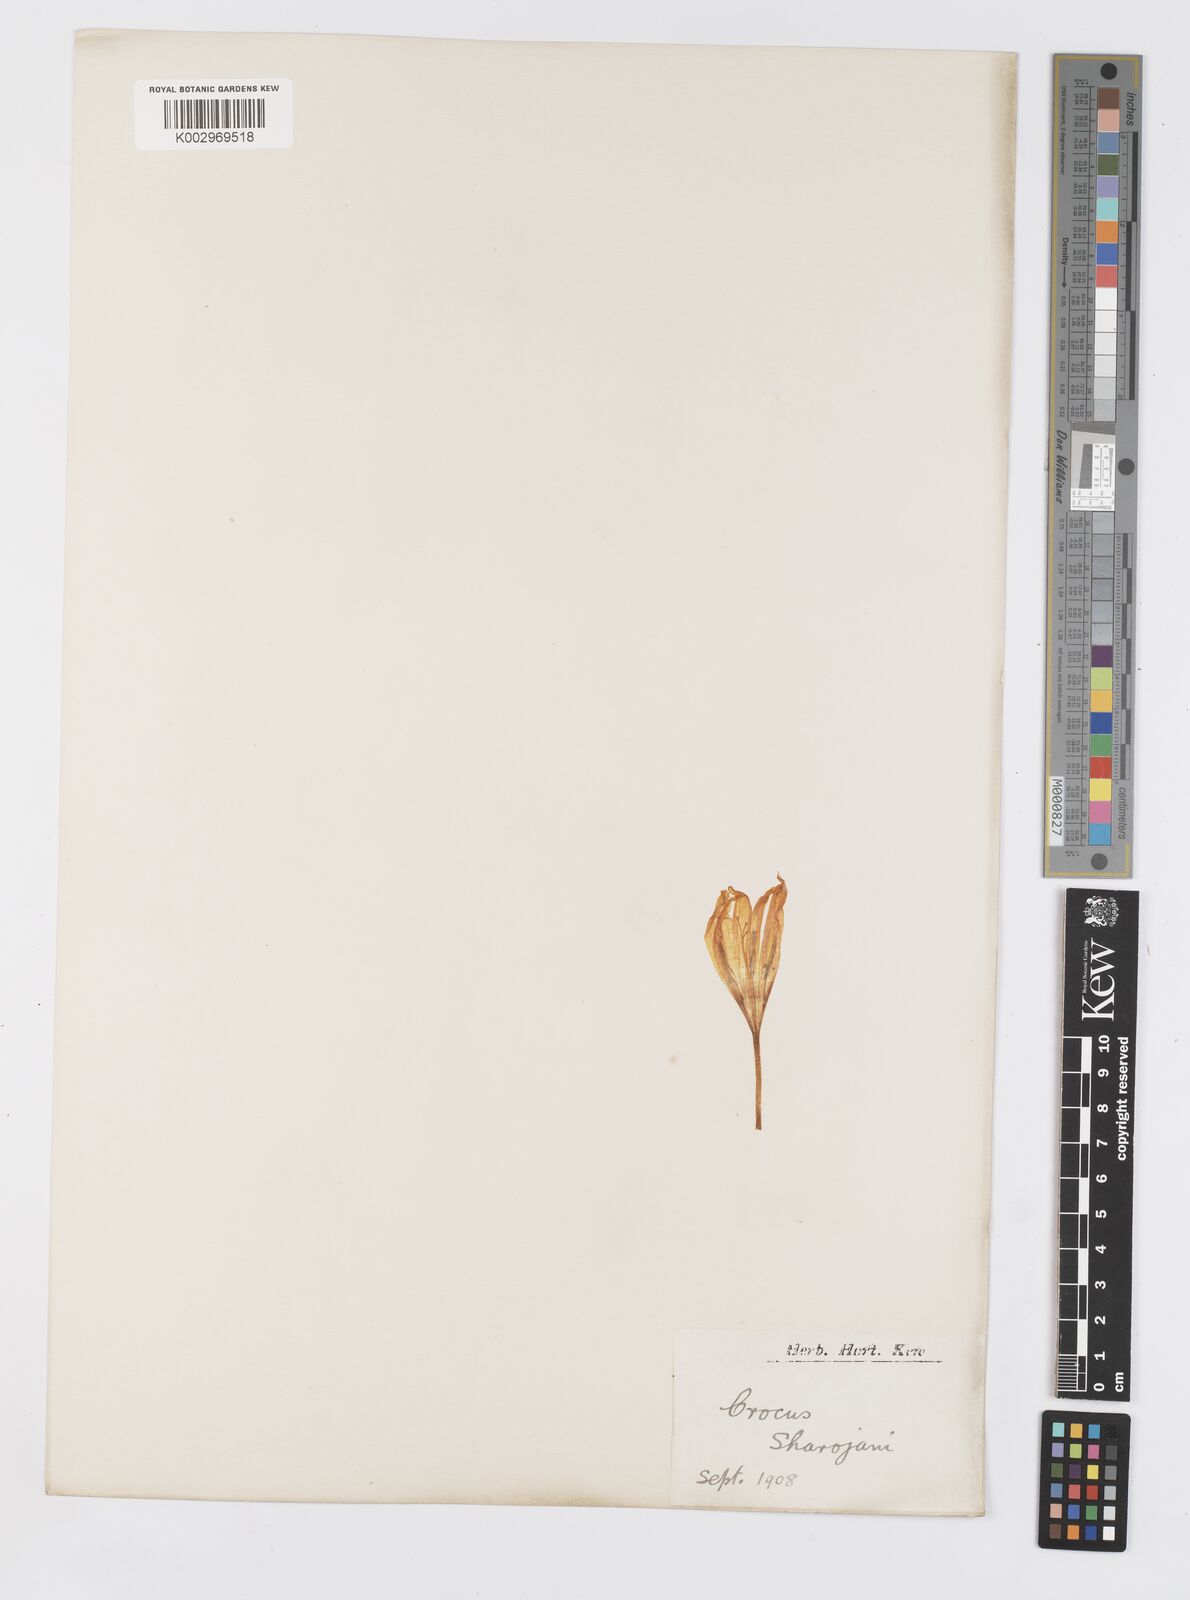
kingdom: Plantae
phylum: Tracheophyta
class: Liliopsida
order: Asparagales
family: Iridaceae
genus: Crocus
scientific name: Crocus scharojanii
